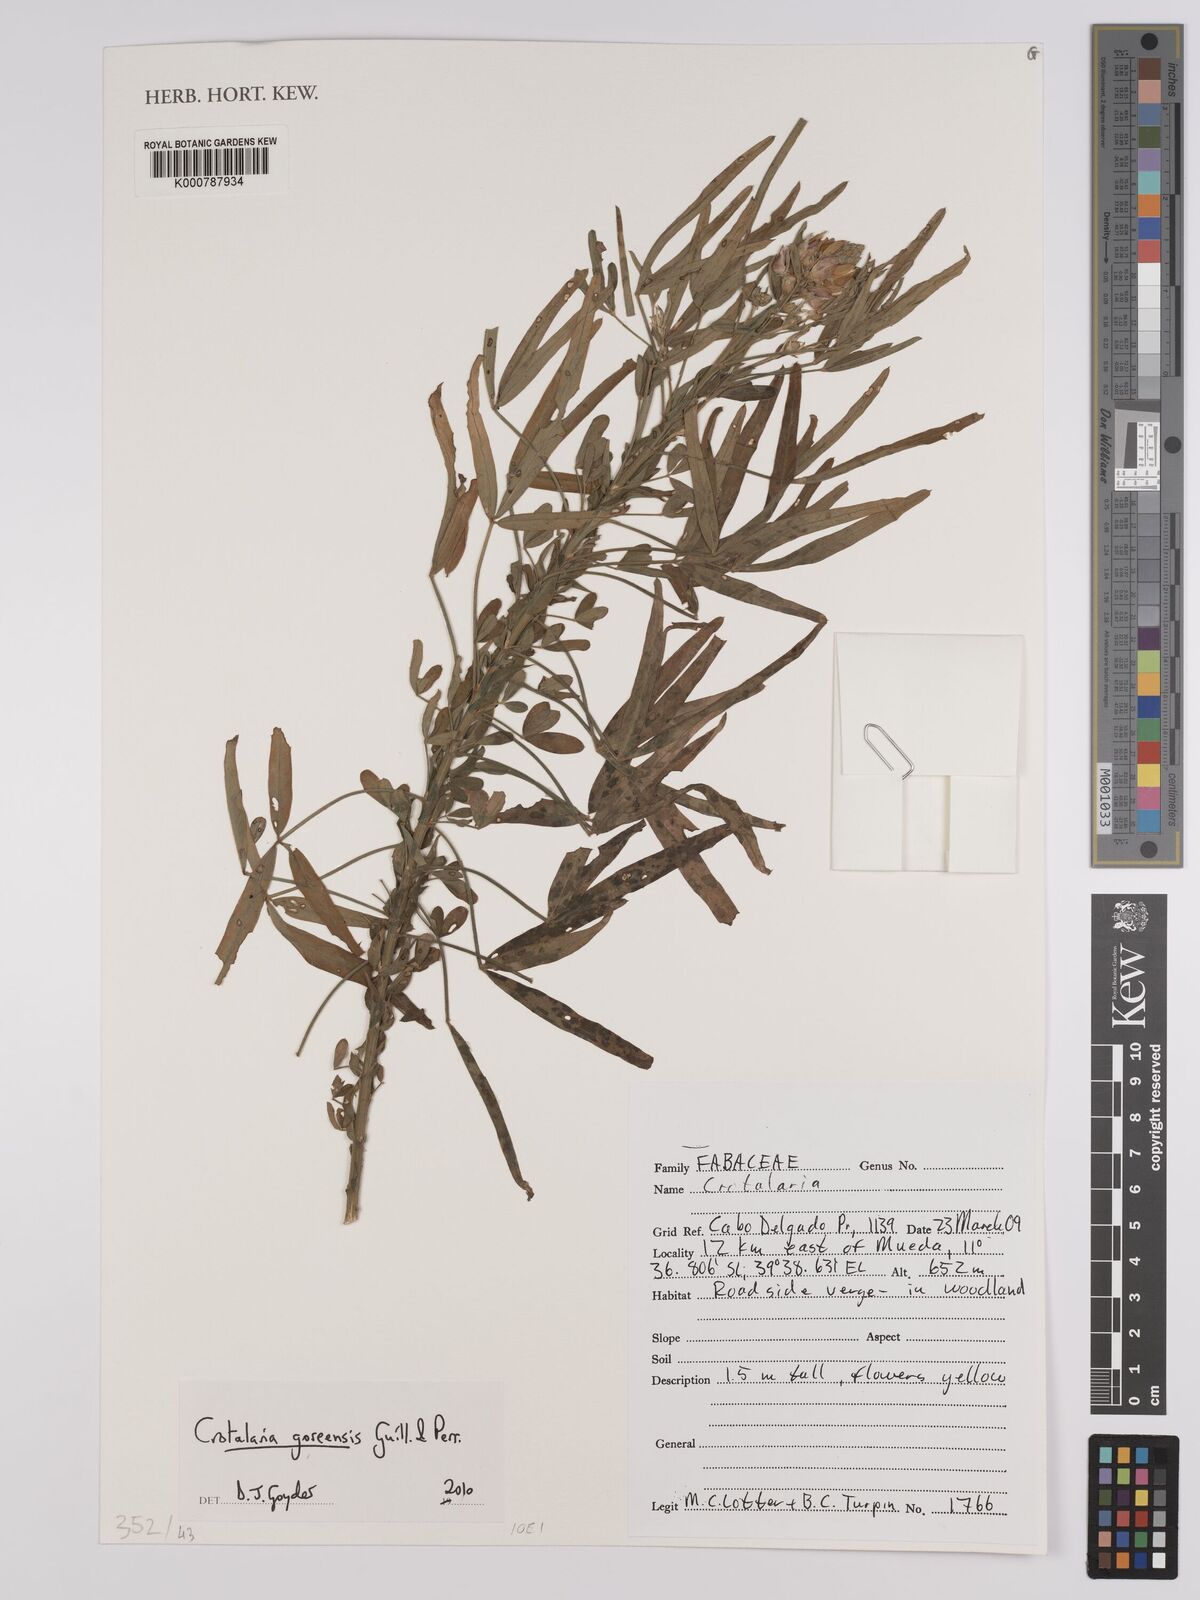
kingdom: Plantae
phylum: Tracheophyta
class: Magnoliopsida
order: Fabales
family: Fabaceae
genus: Crotalaria
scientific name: Crotalaria goreensis
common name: Gambia-pea
